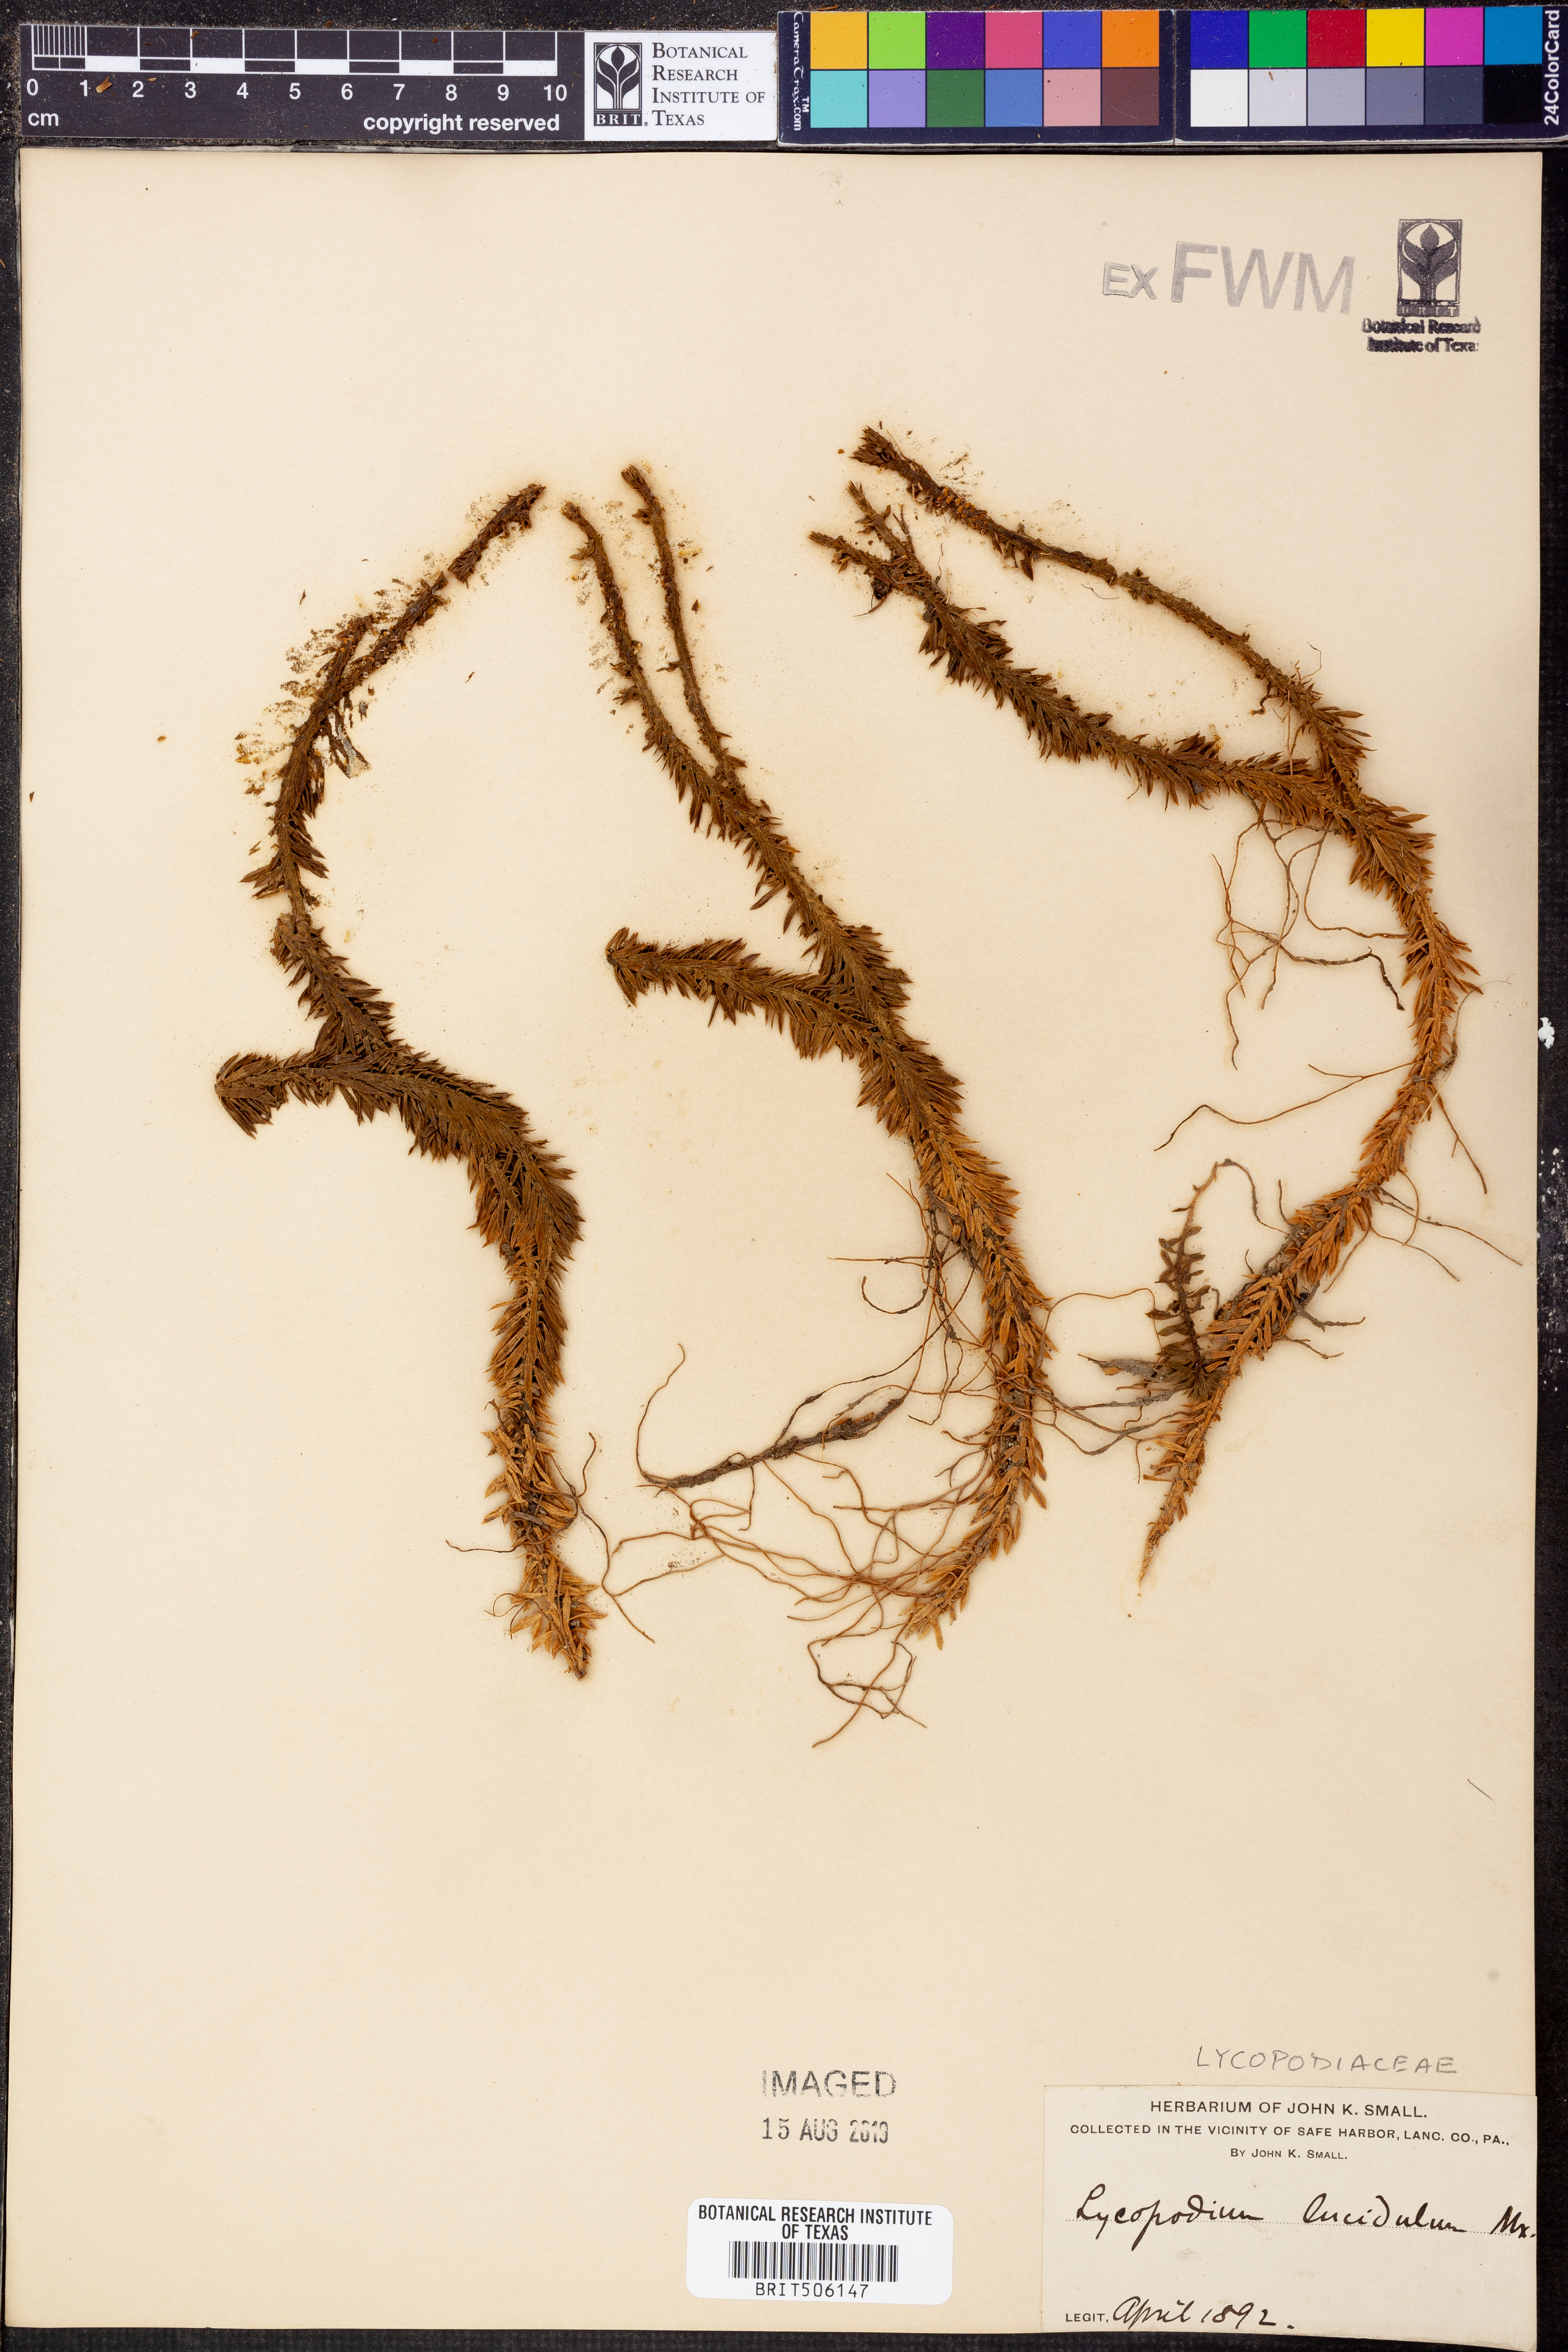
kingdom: Plantae
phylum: Tracheophyta
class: Lycopodiopsida
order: Lycopodiales
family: Lycopodiaceae
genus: Huperzia
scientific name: Huperzia lucidula
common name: Shining clubmoss
